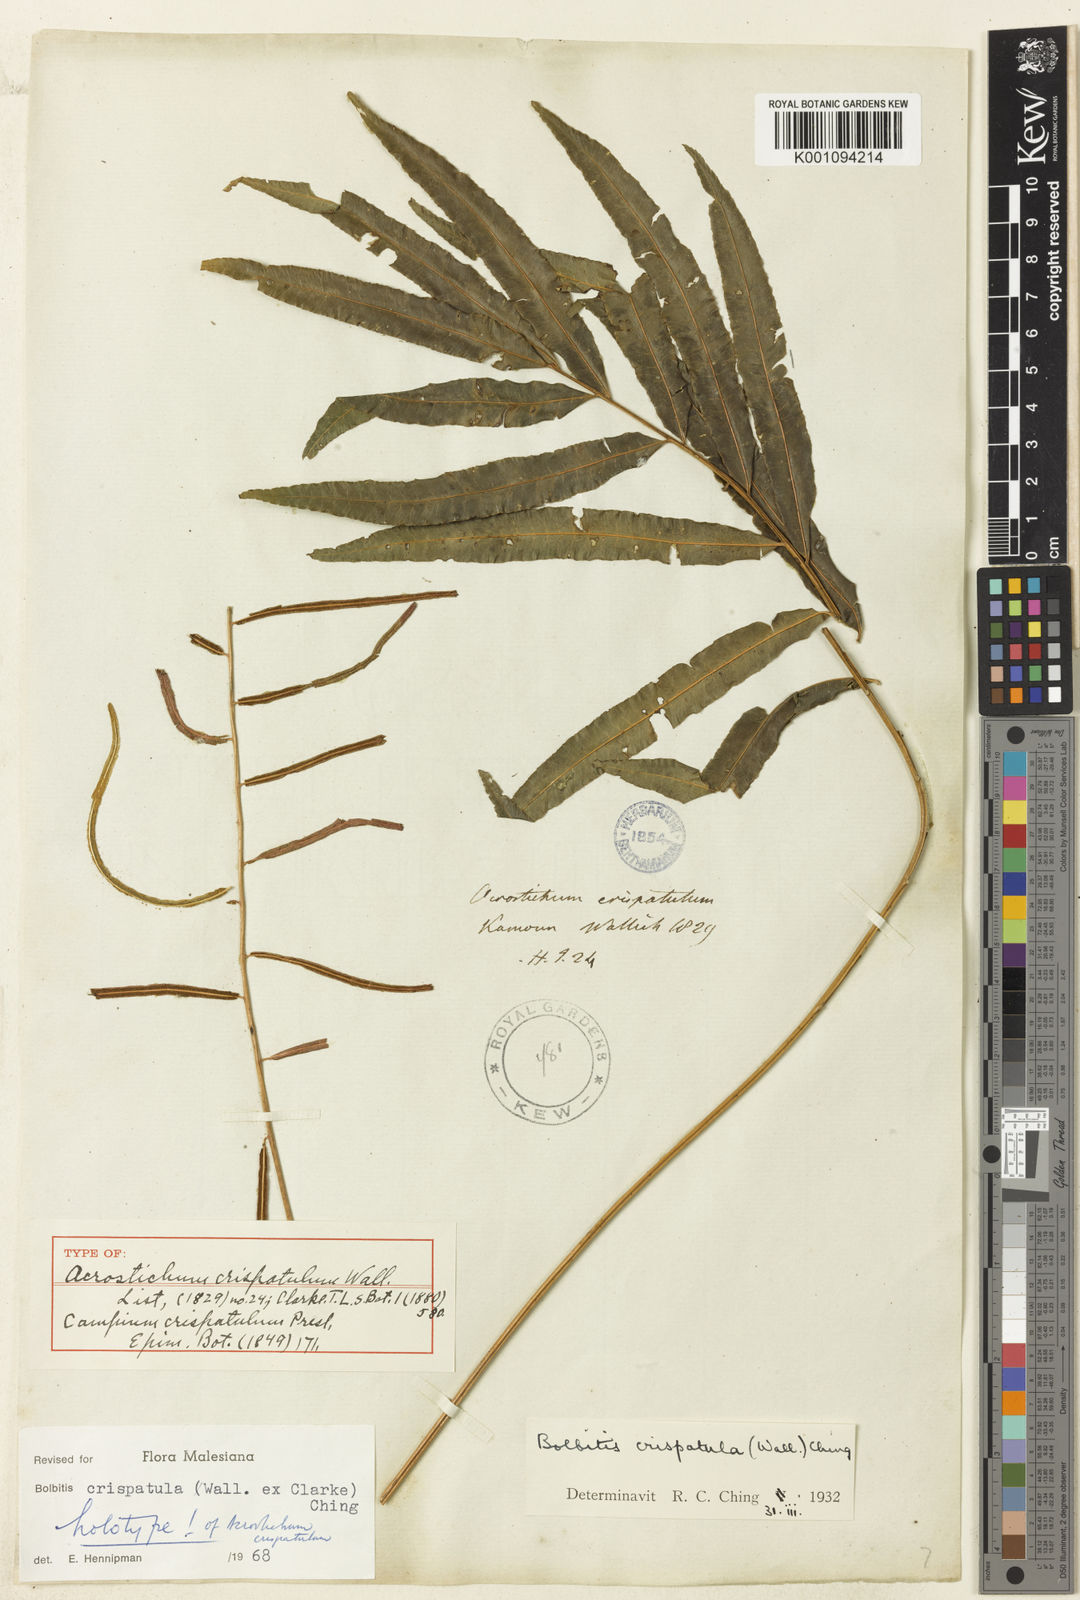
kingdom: Plantae
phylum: Tracheophyta
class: Polypodiopsida
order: Polypodiales
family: Dryopteridaceae
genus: Bolbitis
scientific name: Bolbitis crispatula
